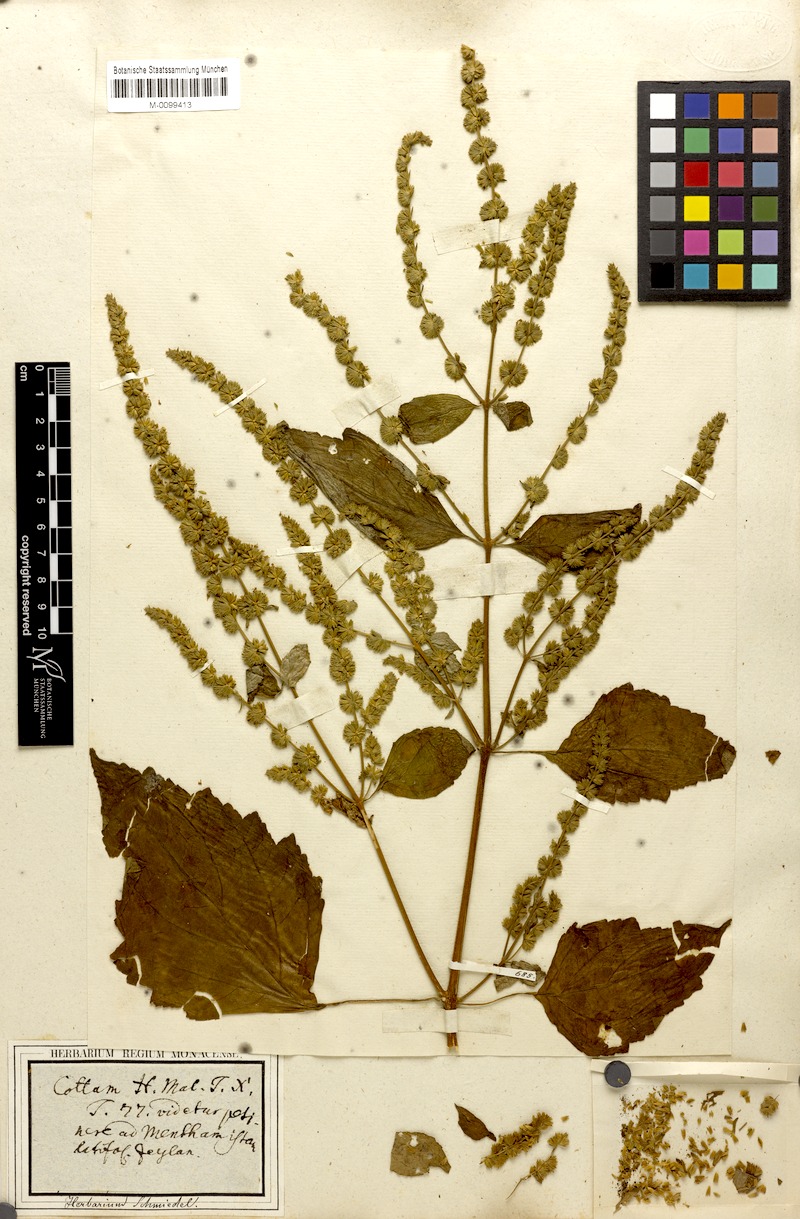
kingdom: Plantae
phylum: Tracheophyta
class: Magnoliopsida
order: Lamiales
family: Lamiaceae
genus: Pogostemon
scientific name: Pogostemon heyneanus
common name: Indian patchouli
